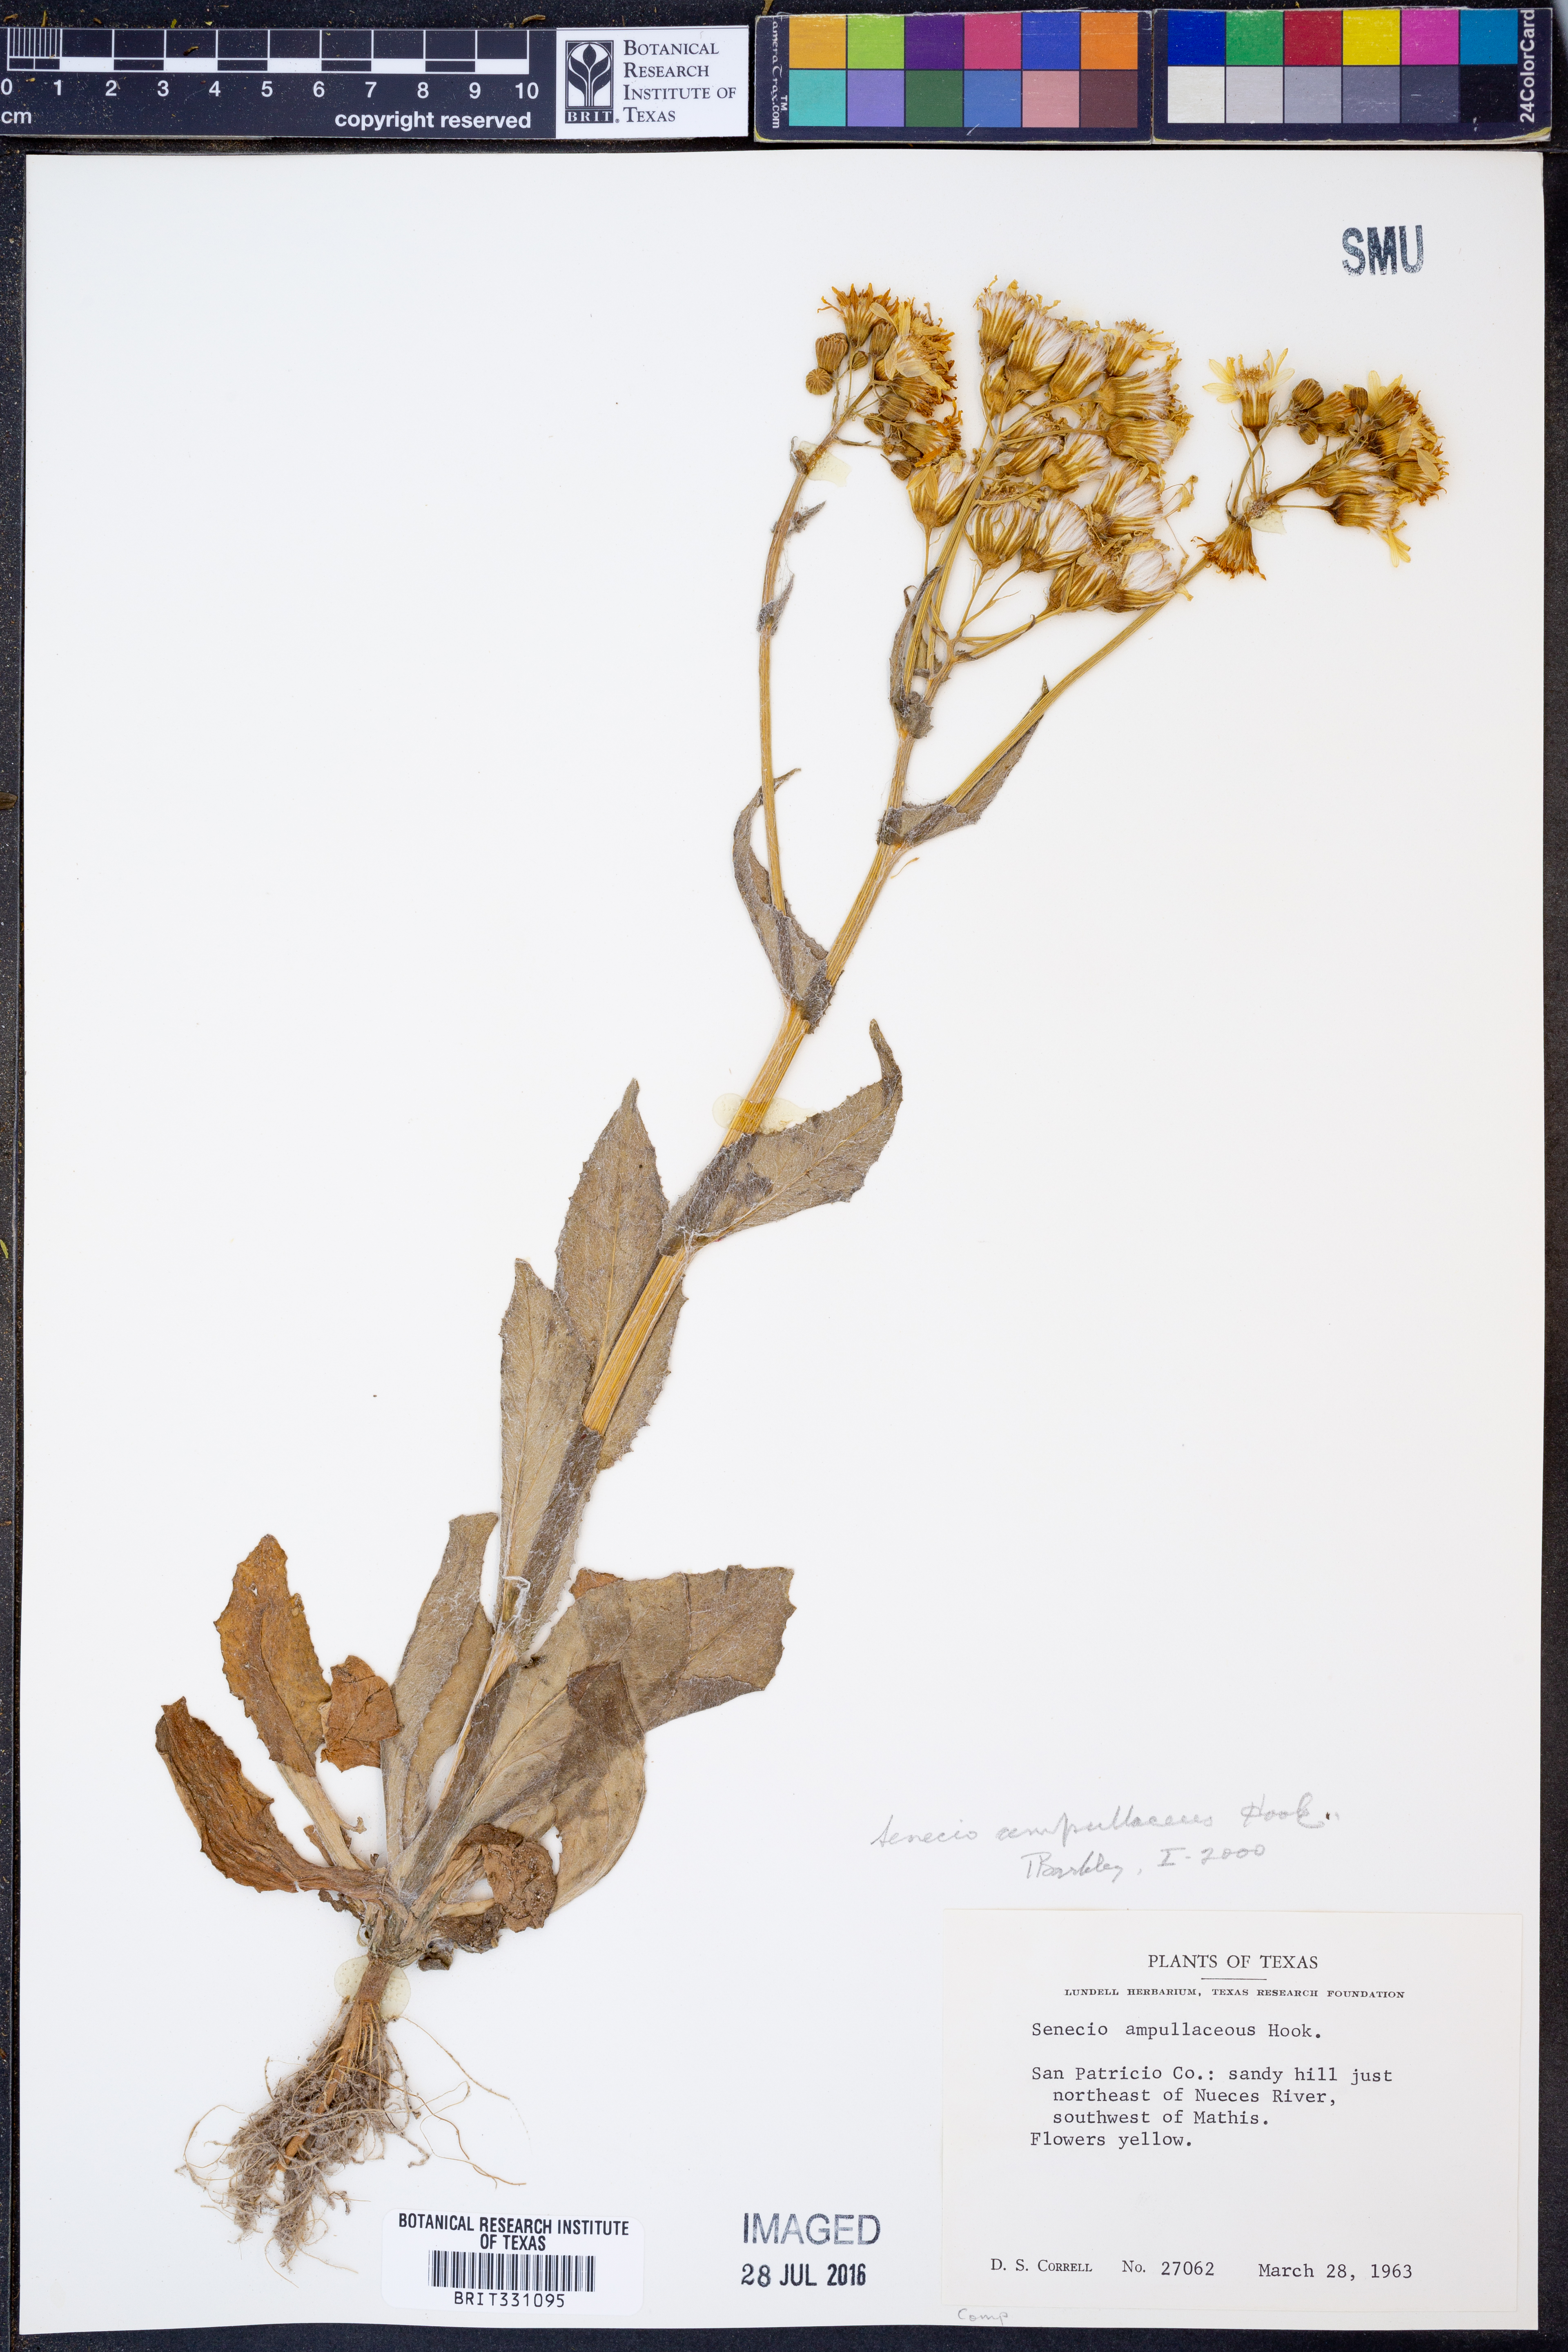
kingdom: Plantae
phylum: Tracheophyta
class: Magnoliopsida
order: Asterales
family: Asteraceae
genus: Senecio
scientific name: Senecio ampullaceus
